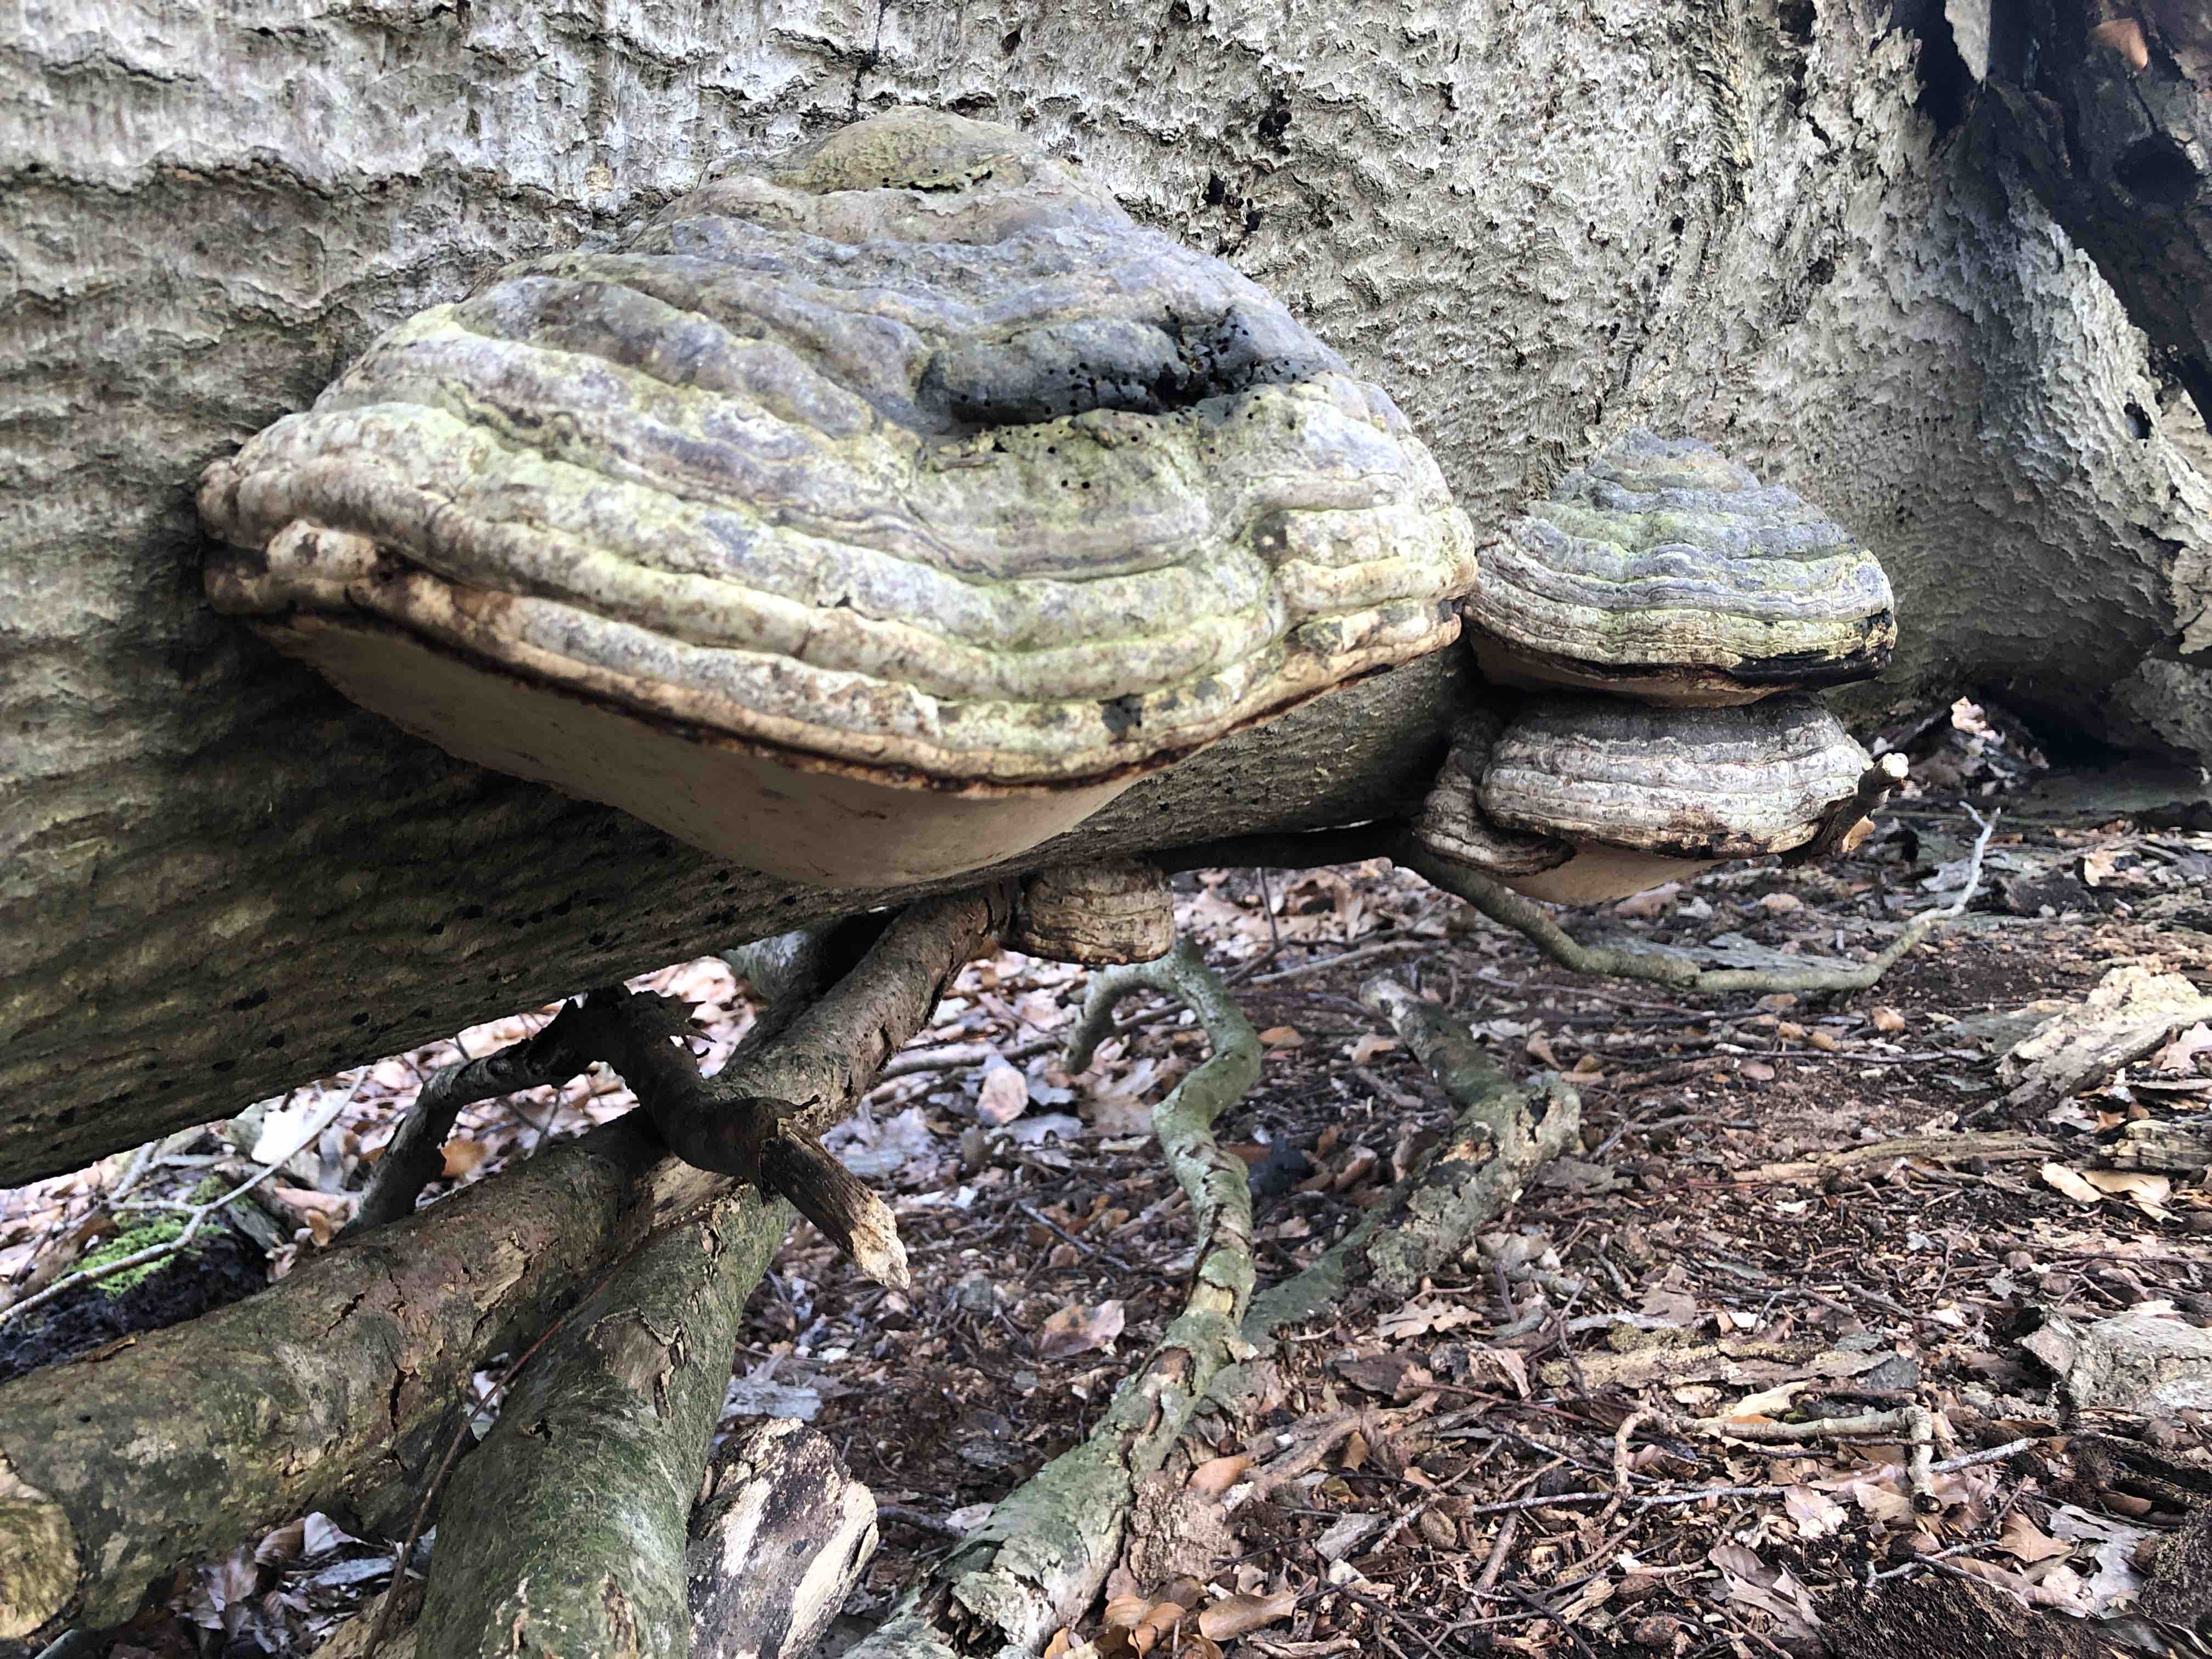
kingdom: Fungi
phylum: Basidiomycota
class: Agaricomycetes
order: Polyporales
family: Polyporaceae
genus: Fomes
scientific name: Fomes fomentarius
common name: tøndersvamp
